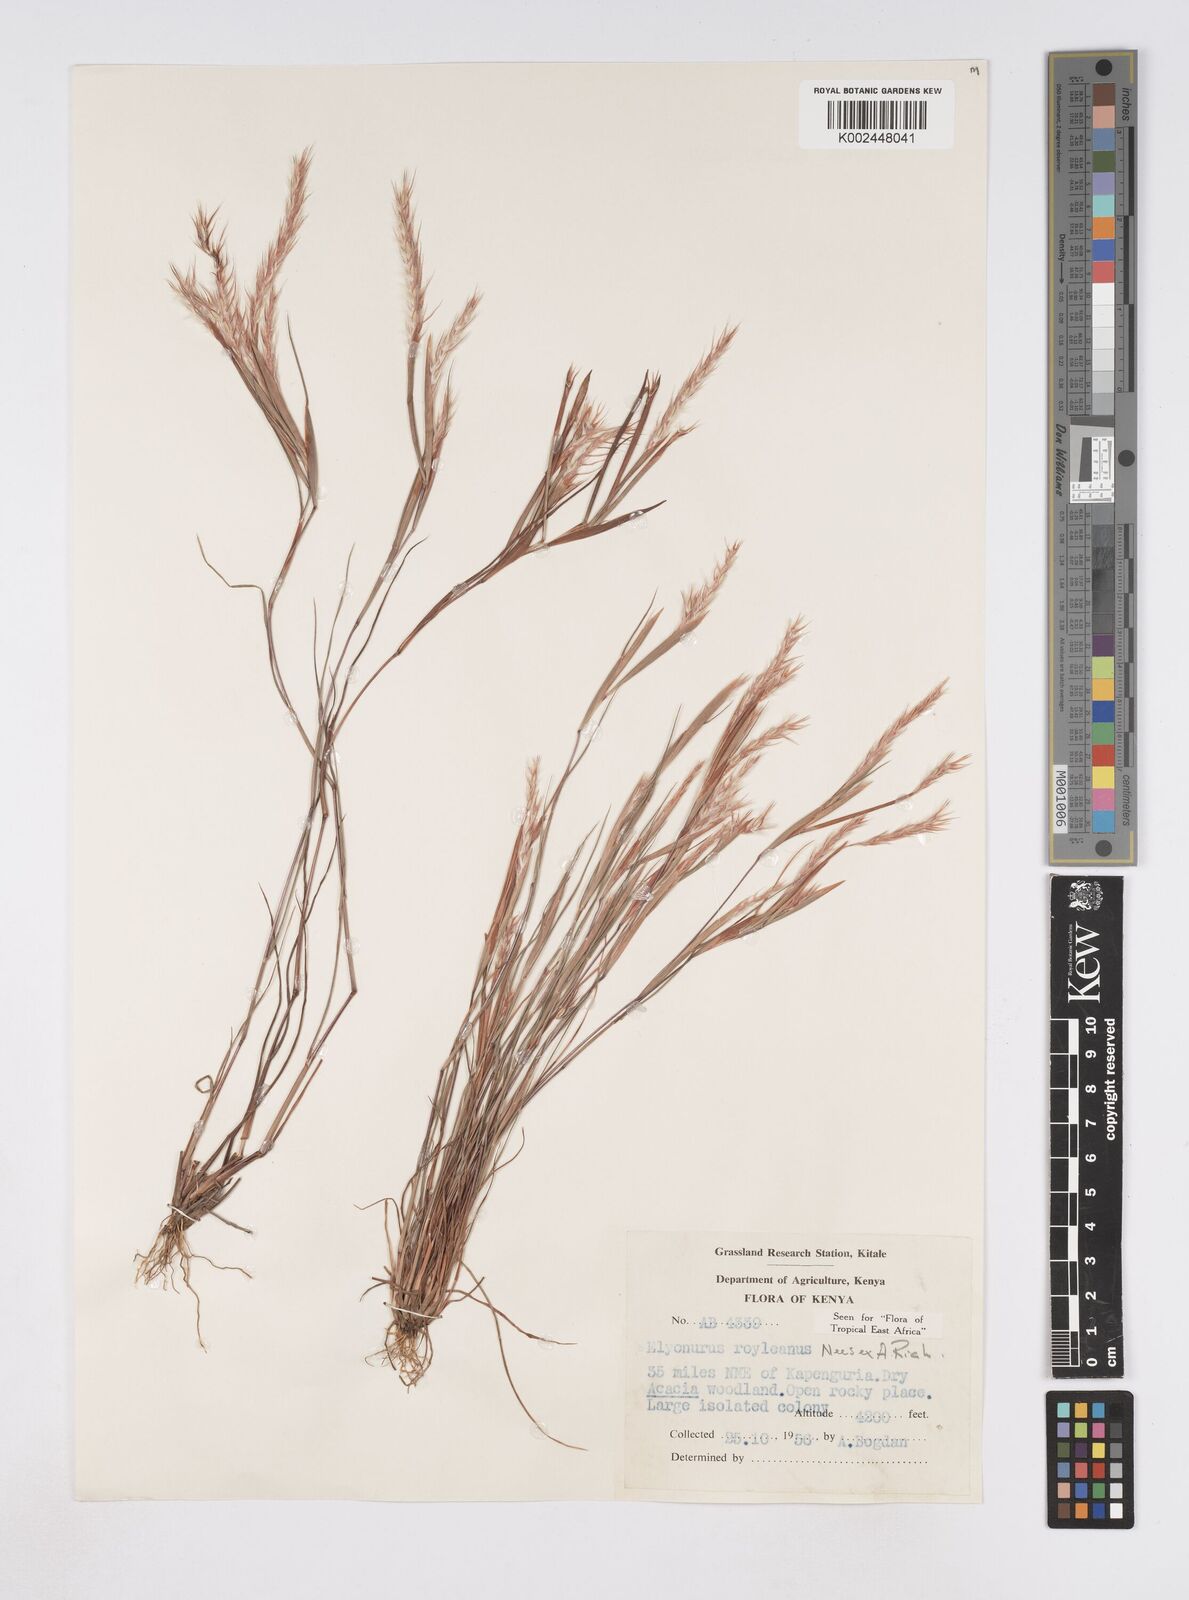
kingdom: Plantae
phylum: Tracheophyta
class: Liliopsida
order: Poales
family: Poaceae
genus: Elionurus
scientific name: Elionurus royleanus
